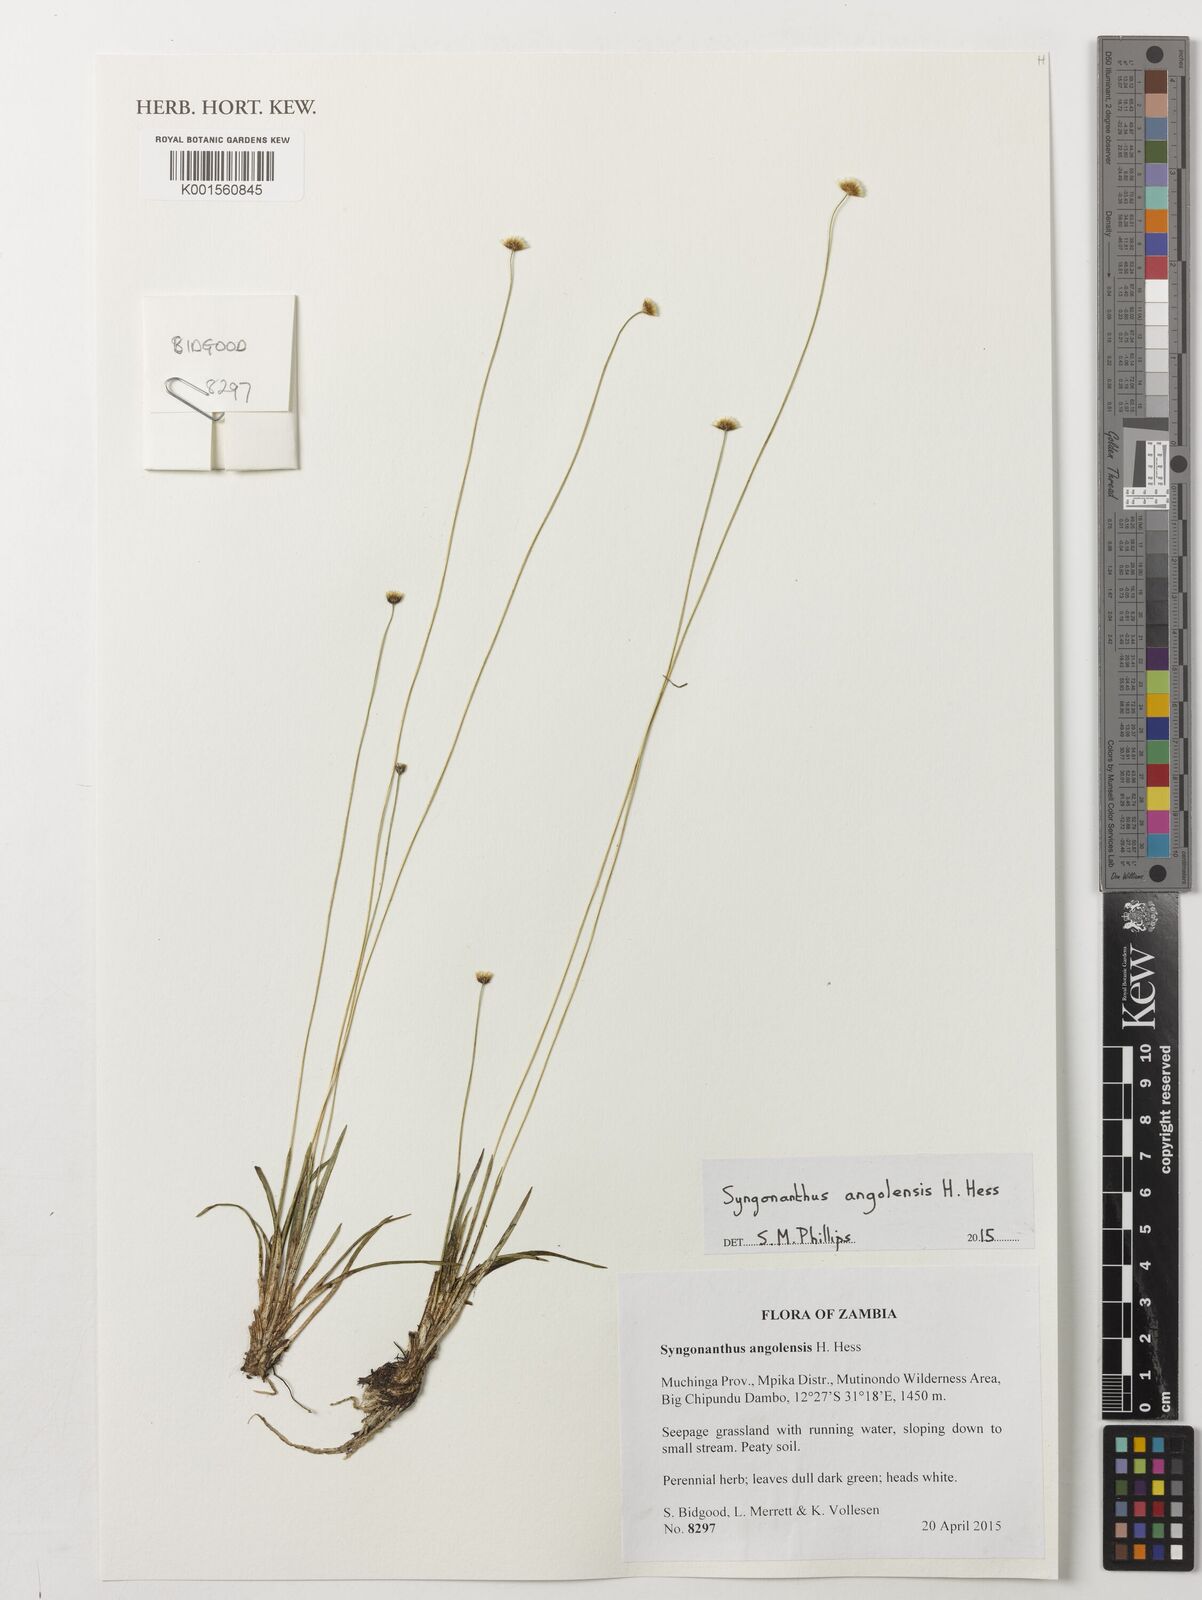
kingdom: Plantae
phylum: Tracheophyta
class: Liliopsida
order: Poales
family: Eriocaulaceae
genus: Syngonanthus
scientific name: Syngonanthus angolensis
